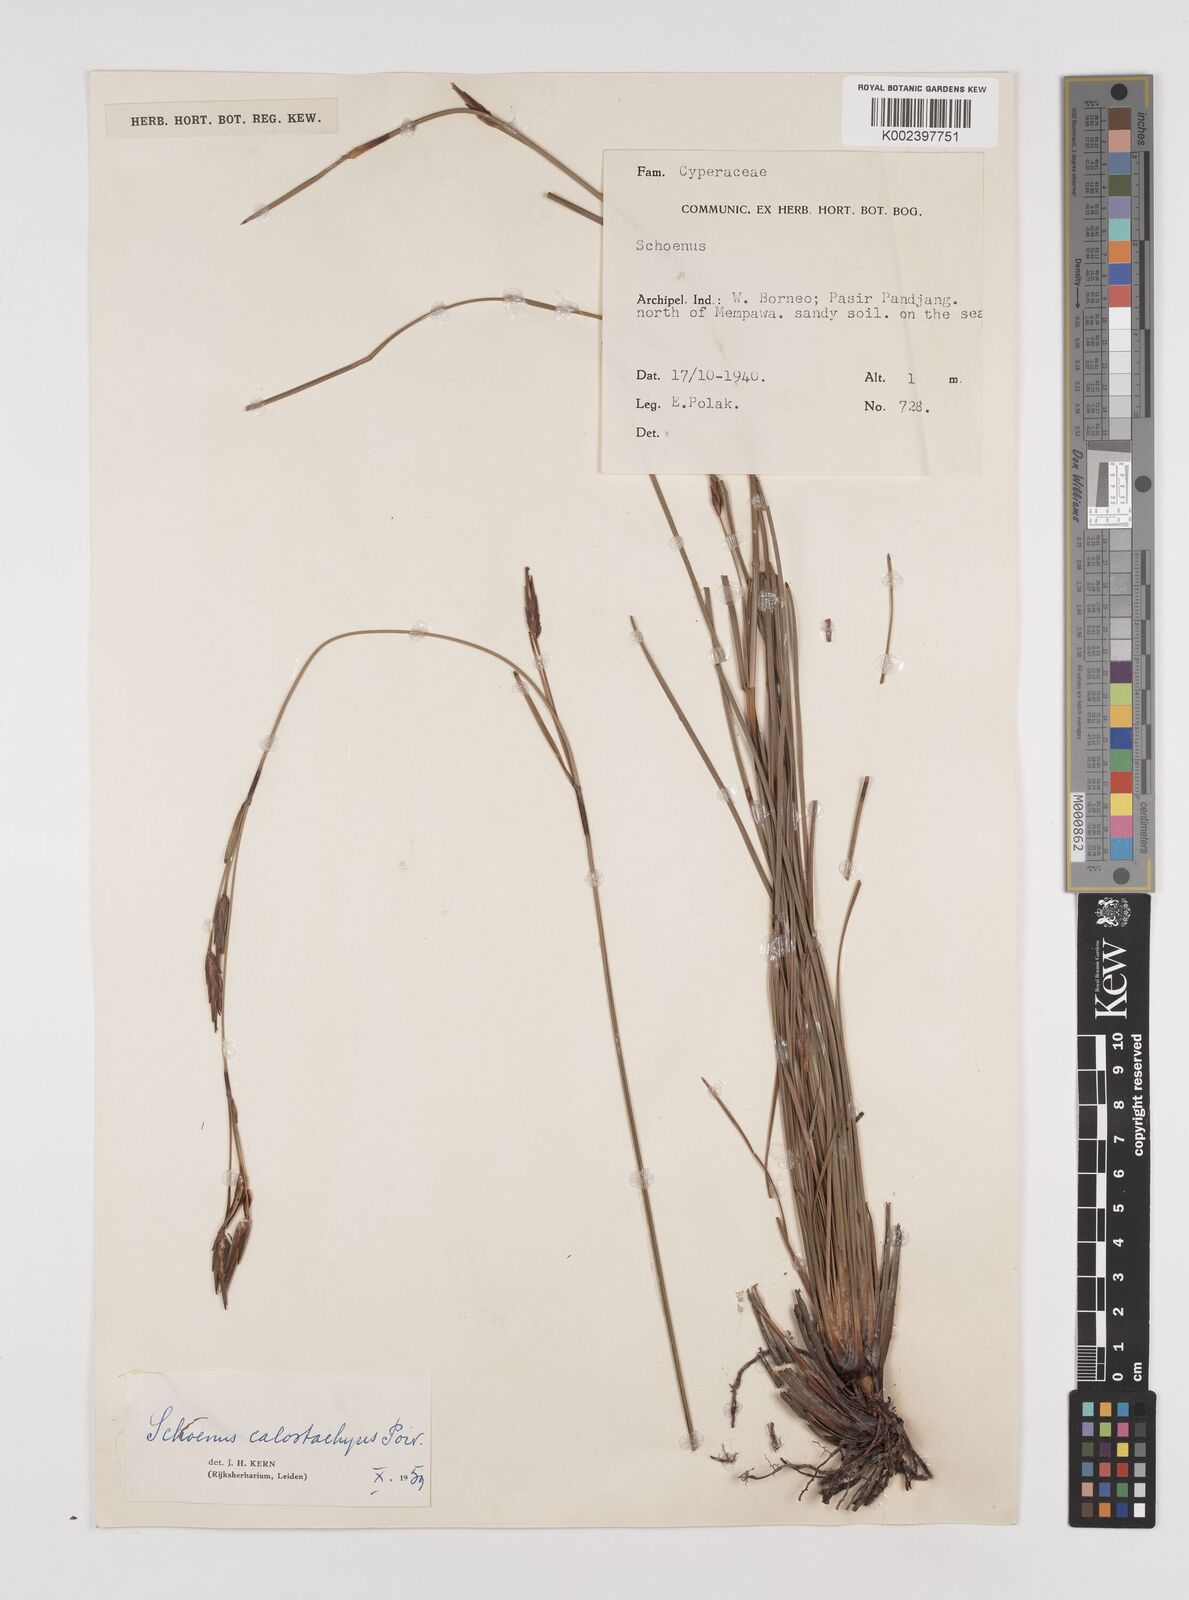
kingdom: Plantae
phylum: Tracheophyta
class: Liliopsida
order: Poales
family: Cyperaceae
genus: Schoenus
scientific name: Schoenus calostachyus
